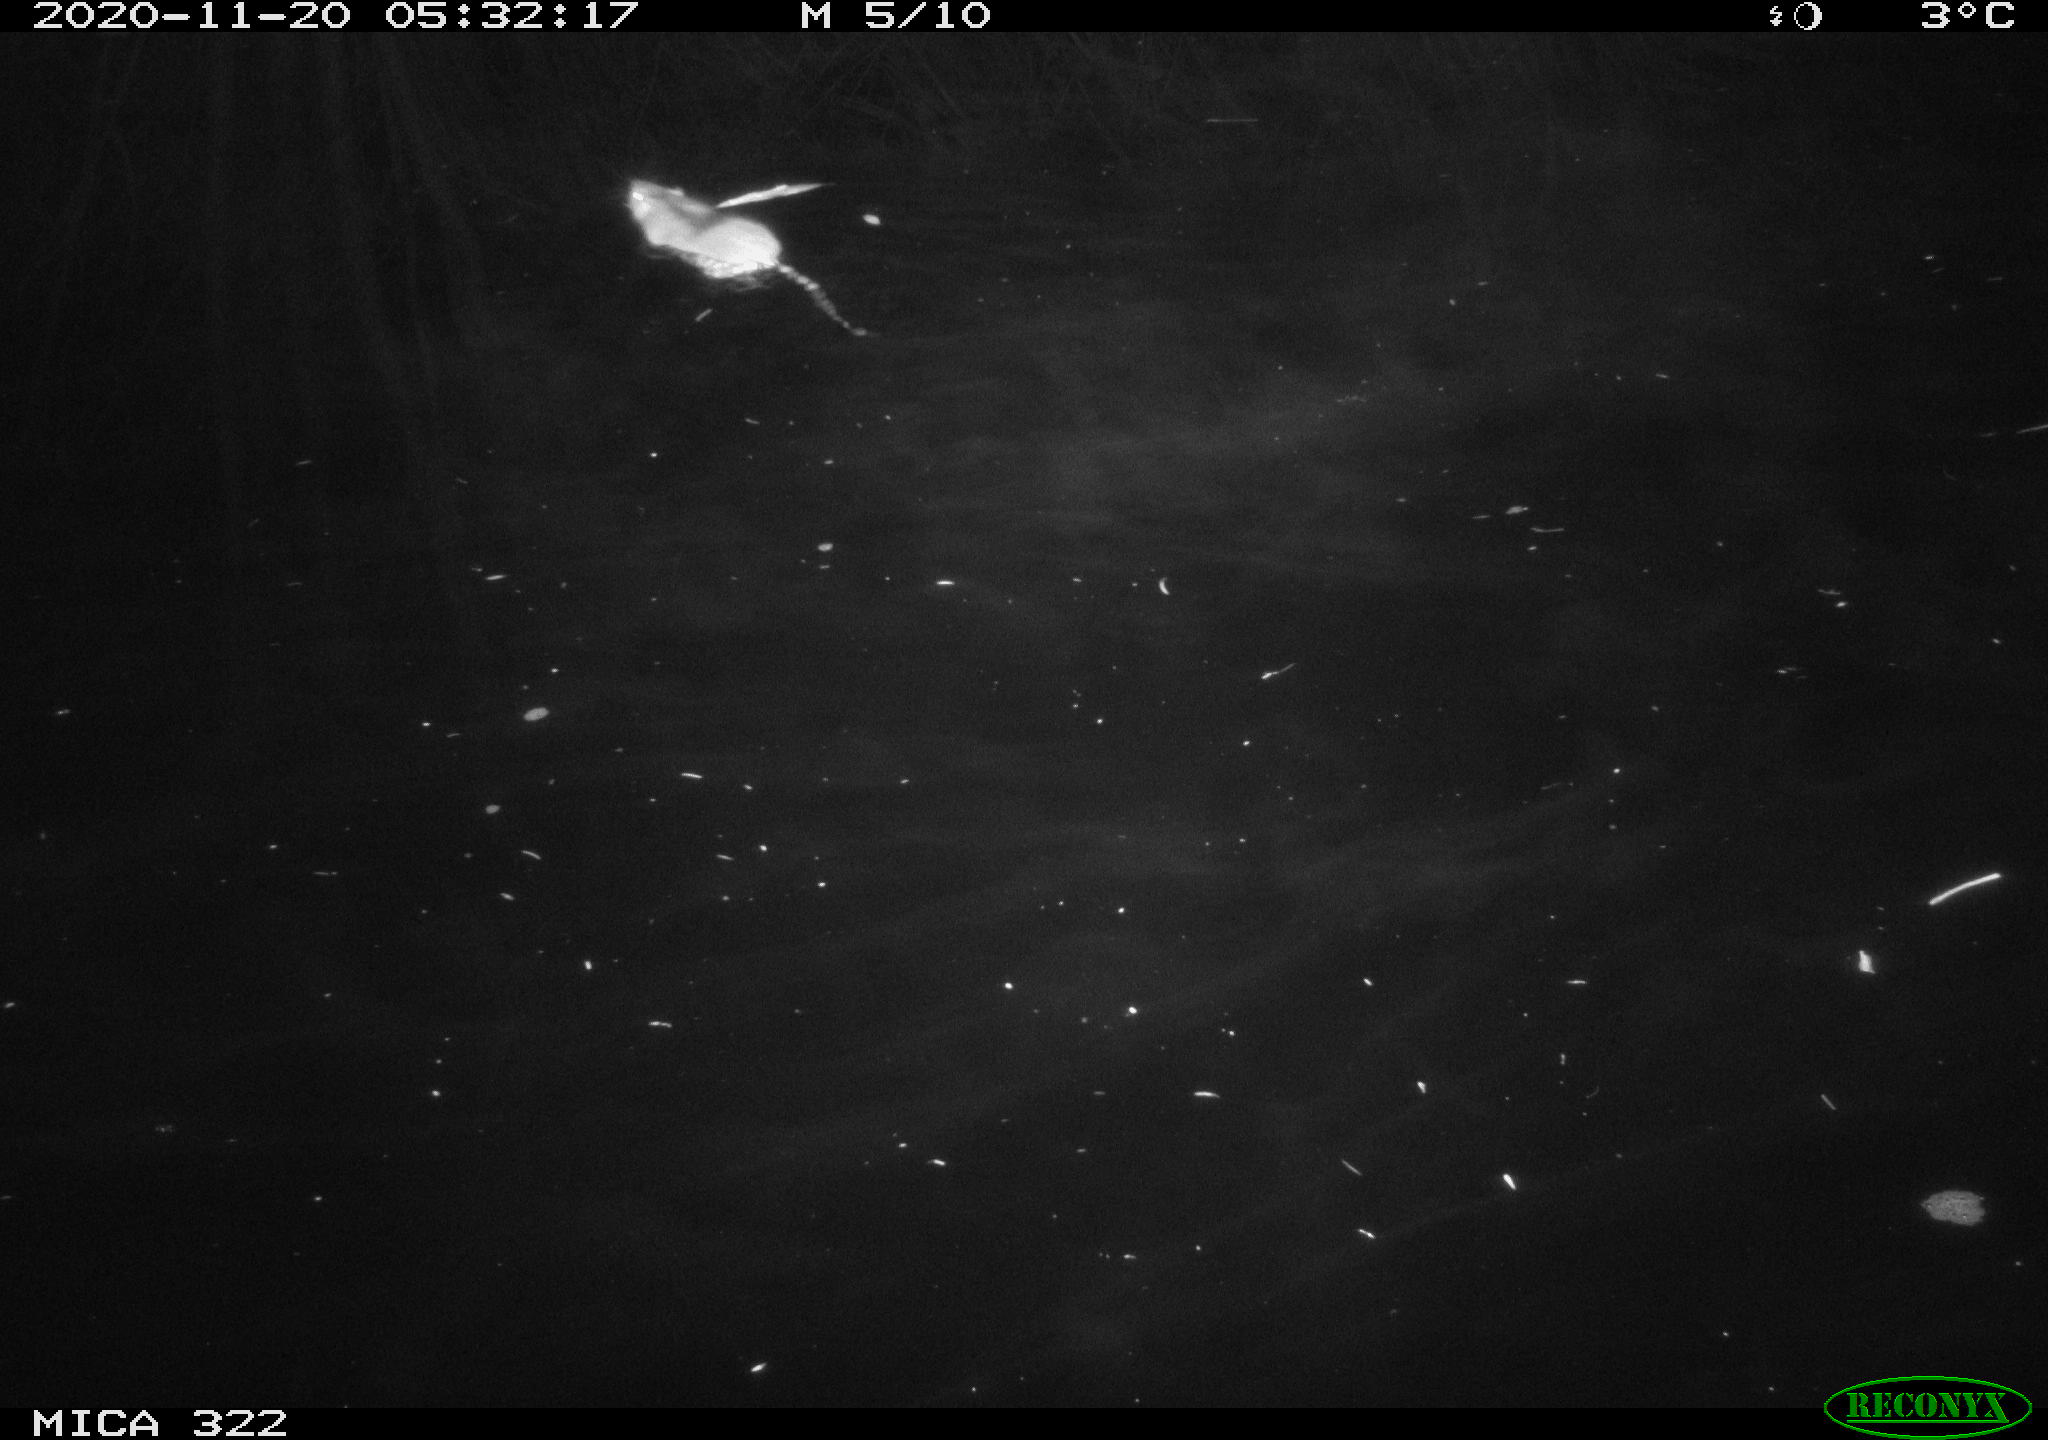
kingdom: Animalia
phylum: Chordata
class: Mammalia
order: Rodentia
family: Muridae
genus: Rattus
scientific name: Rattus norvegicus
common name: Brown rat
